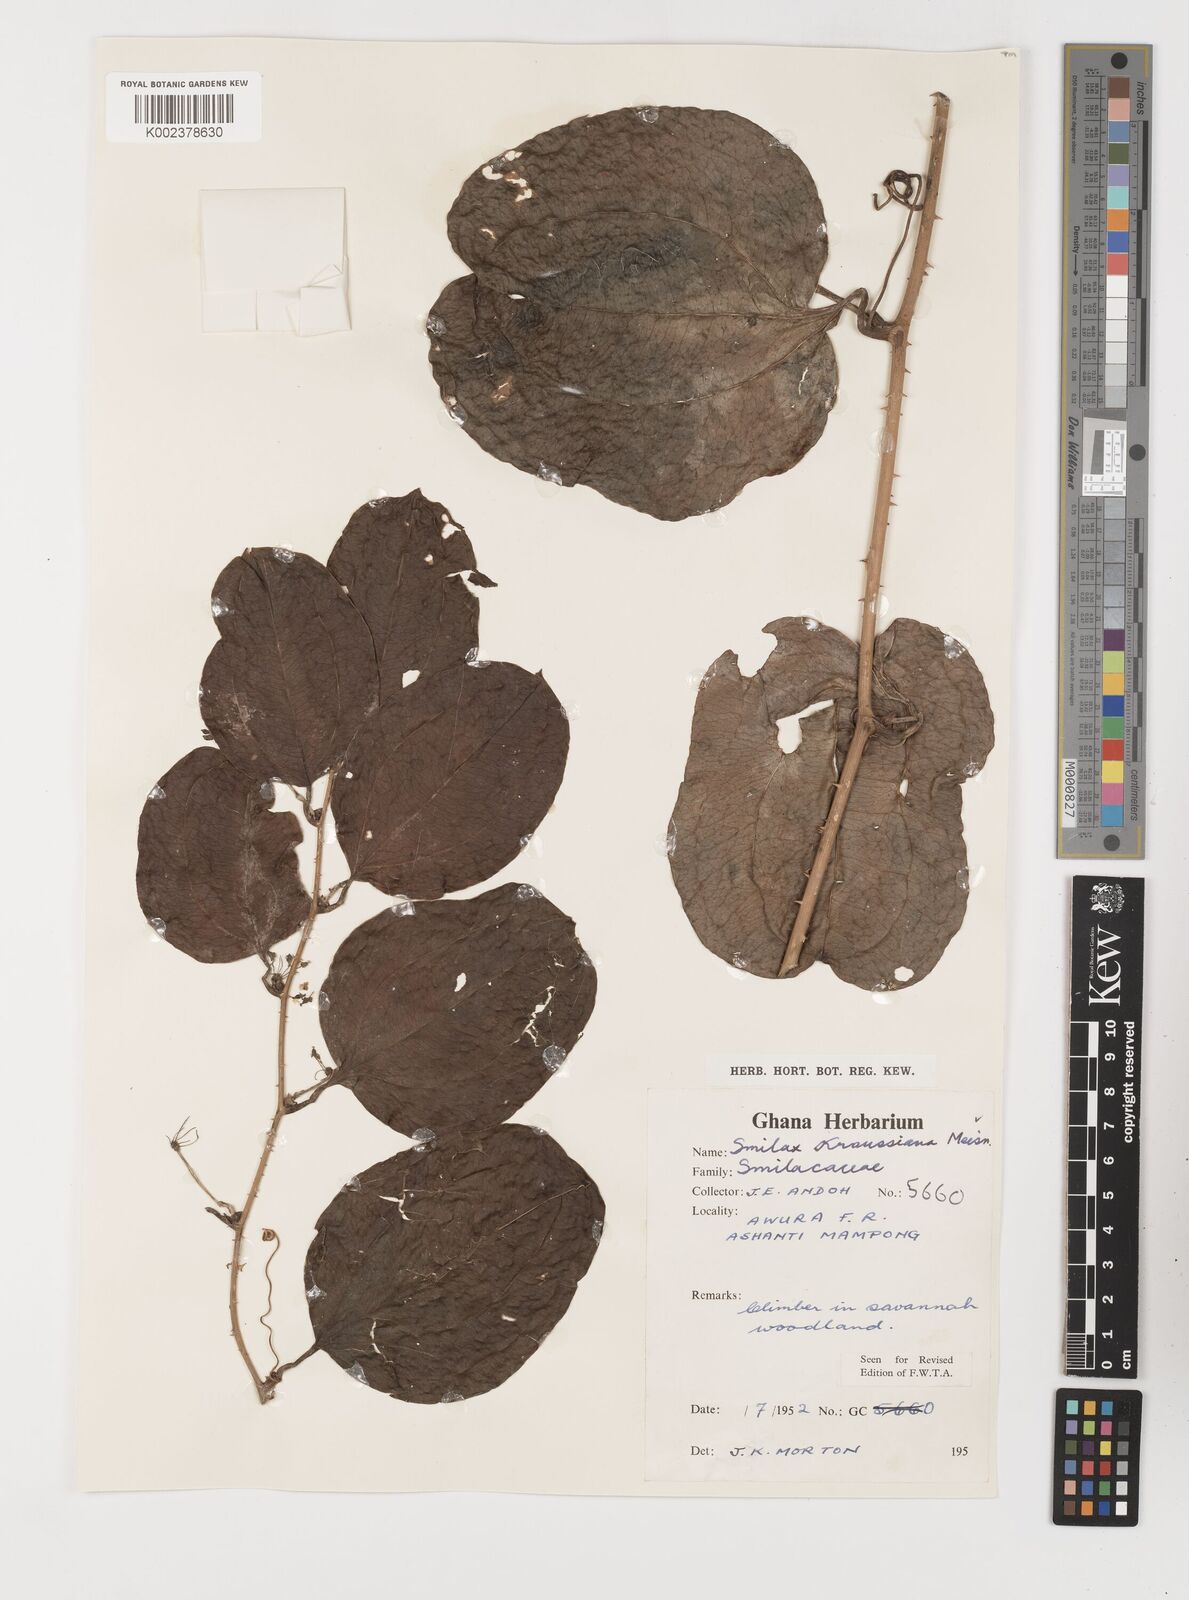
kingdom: Plantae
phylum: Tracheophyta
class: Liliopsida
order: Liliales
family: Smilacaceae
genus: Smilax
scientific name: Smilax anceps
